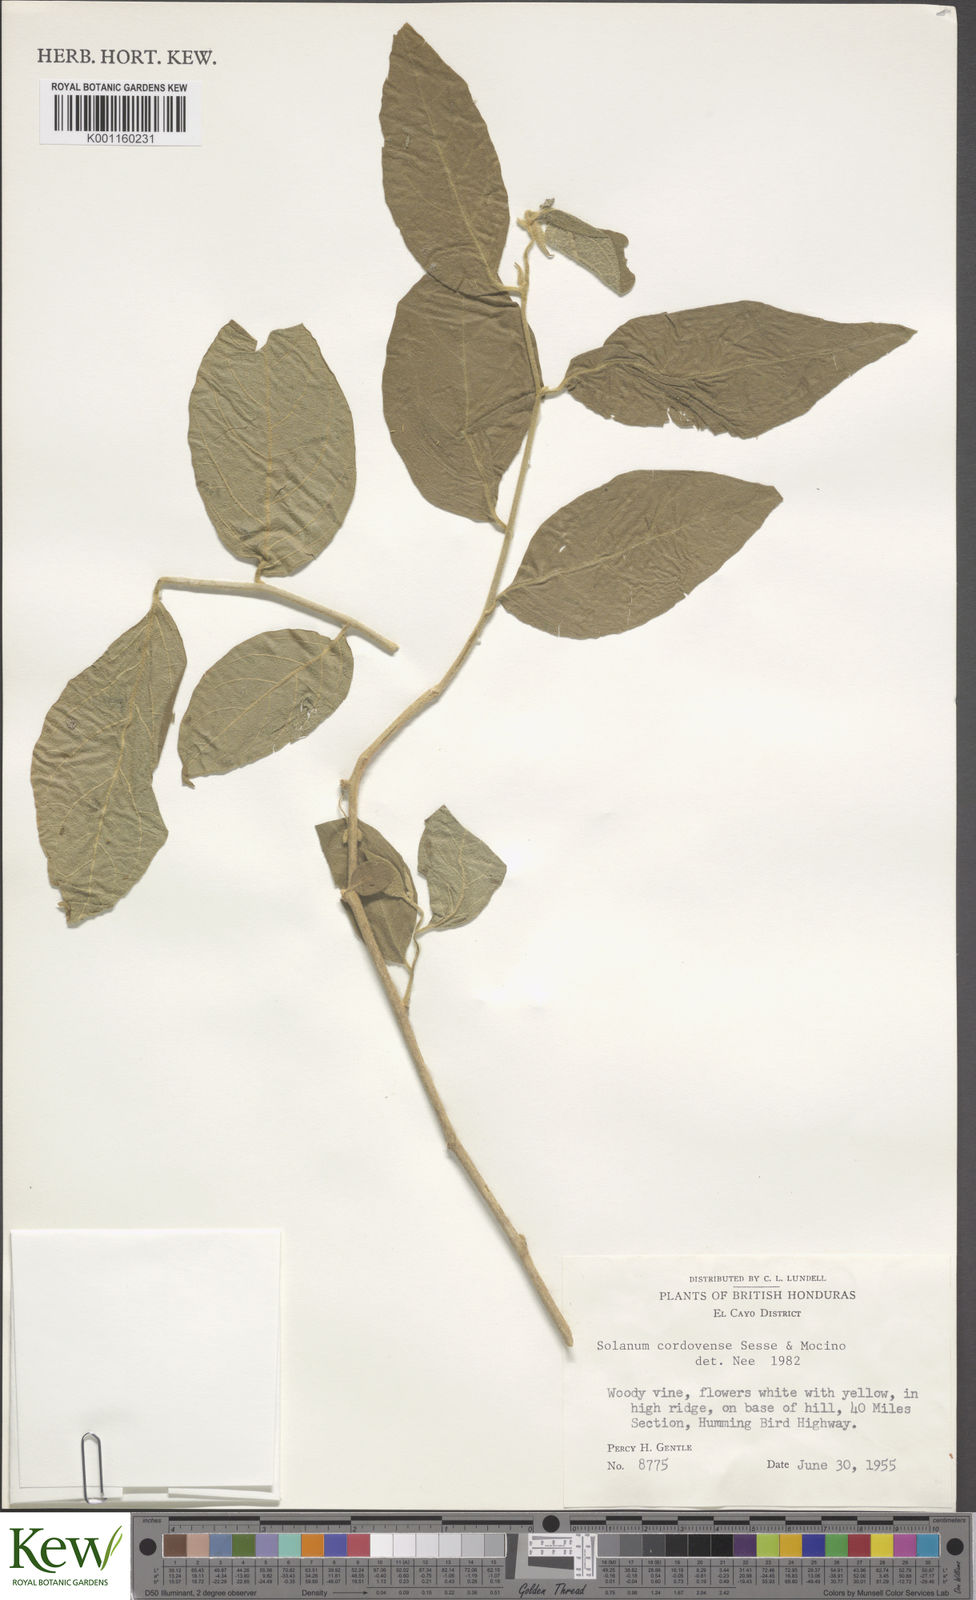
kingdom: Plantae
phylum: Tracheophyta
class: Magnoliopsida
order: Solanales
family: Solanaceae
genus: Solanum
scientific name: Solanum
